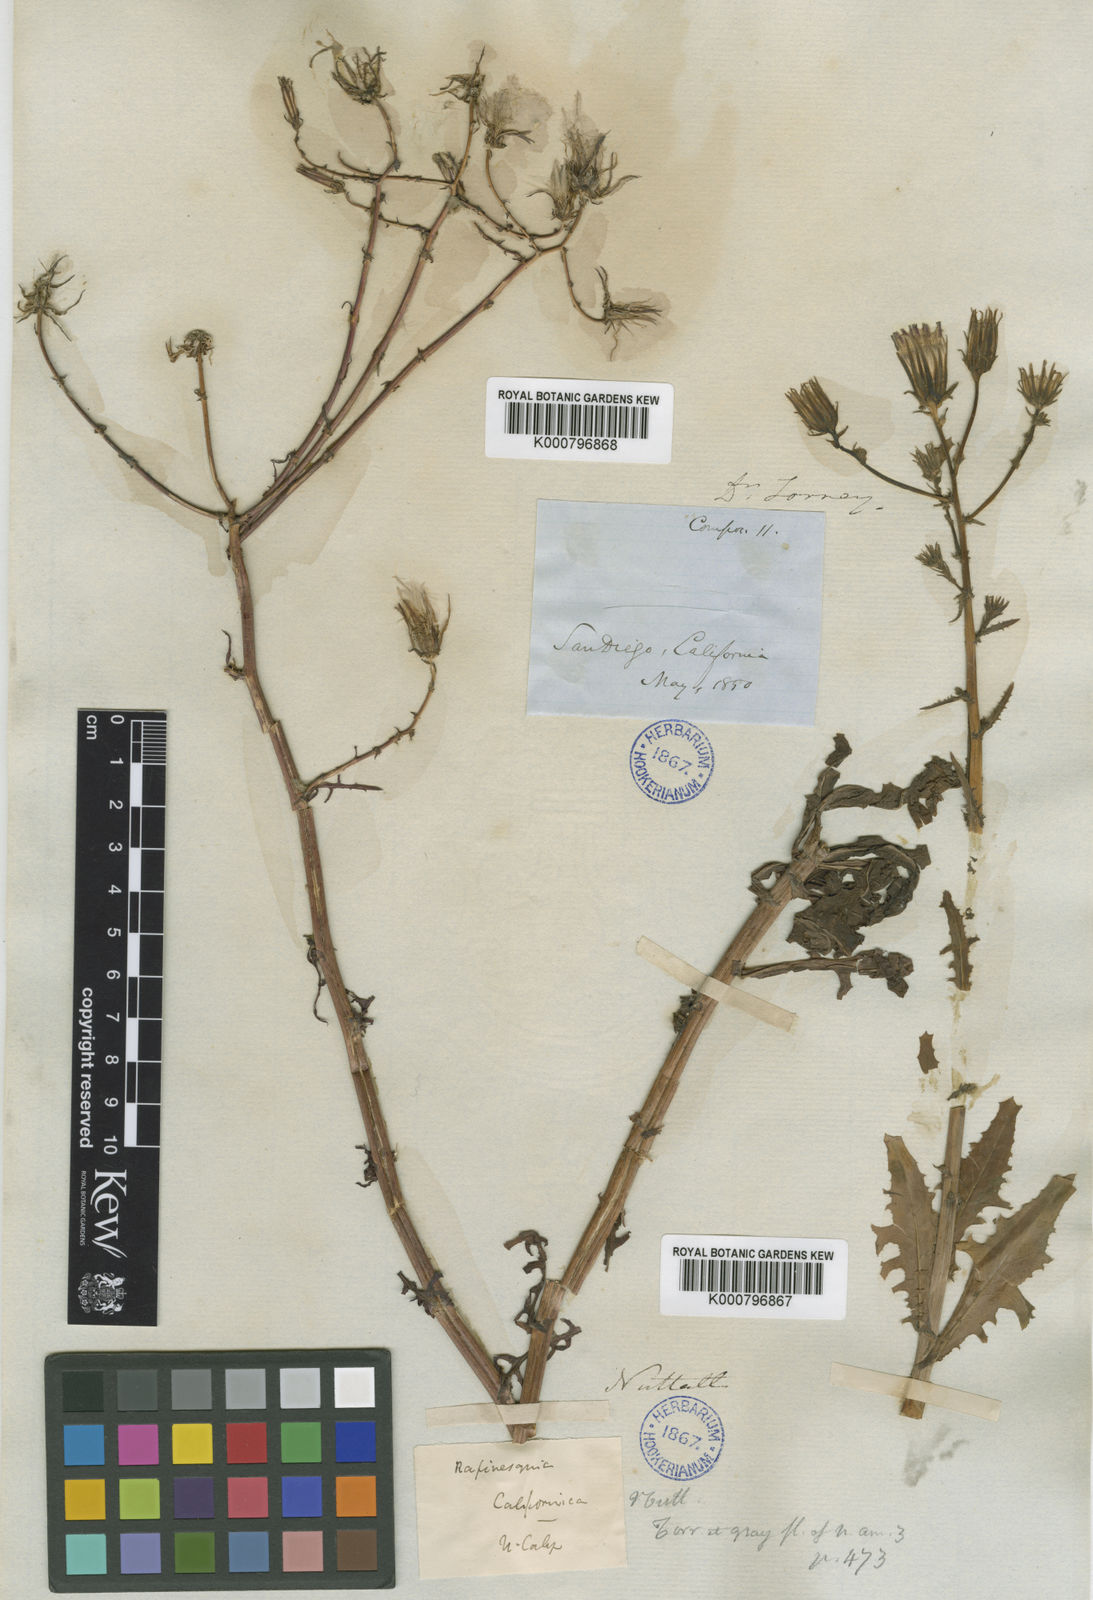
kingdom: Plantae
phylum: Tracheophyta
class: Magnoliopsida
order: Asterales
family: Asteraceae
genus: Rafinesquia
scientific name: Rafinesquia californica
